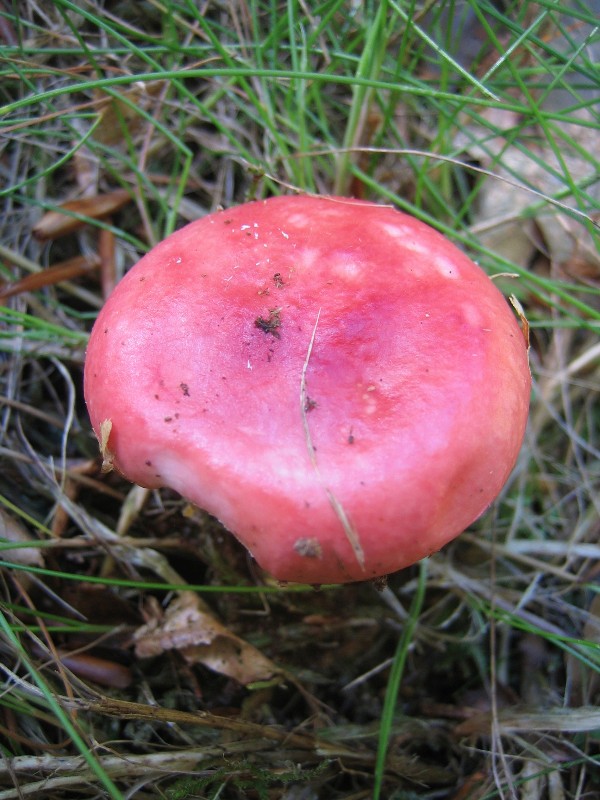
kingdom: Fungi
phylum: Basidiomycota
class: Agaricomycetes
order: Russulales
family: Russulaceae
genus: Russula
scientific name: Russula
